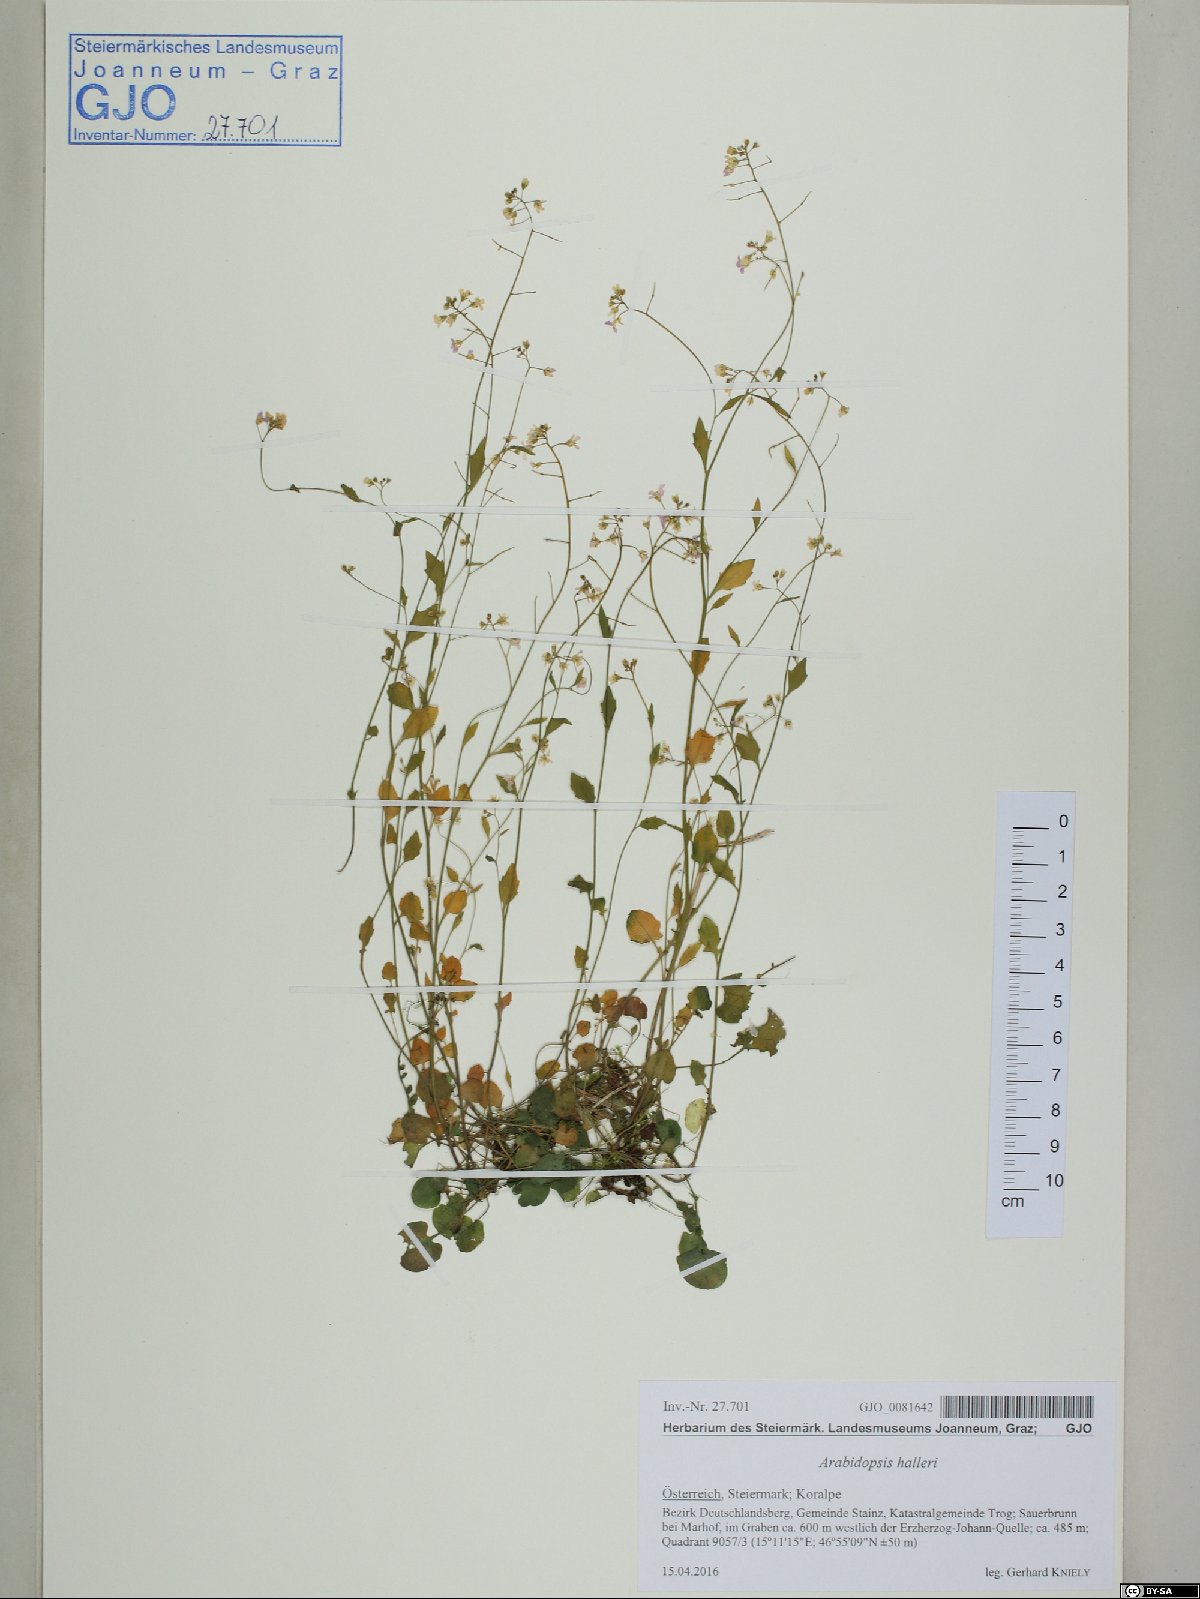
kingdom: Plantae
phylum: Tracheophyta
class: Magnoliopsida
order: Brassicales
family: Brassicaceae
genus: Arabidopsis
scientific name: Arabidopsis halleri
